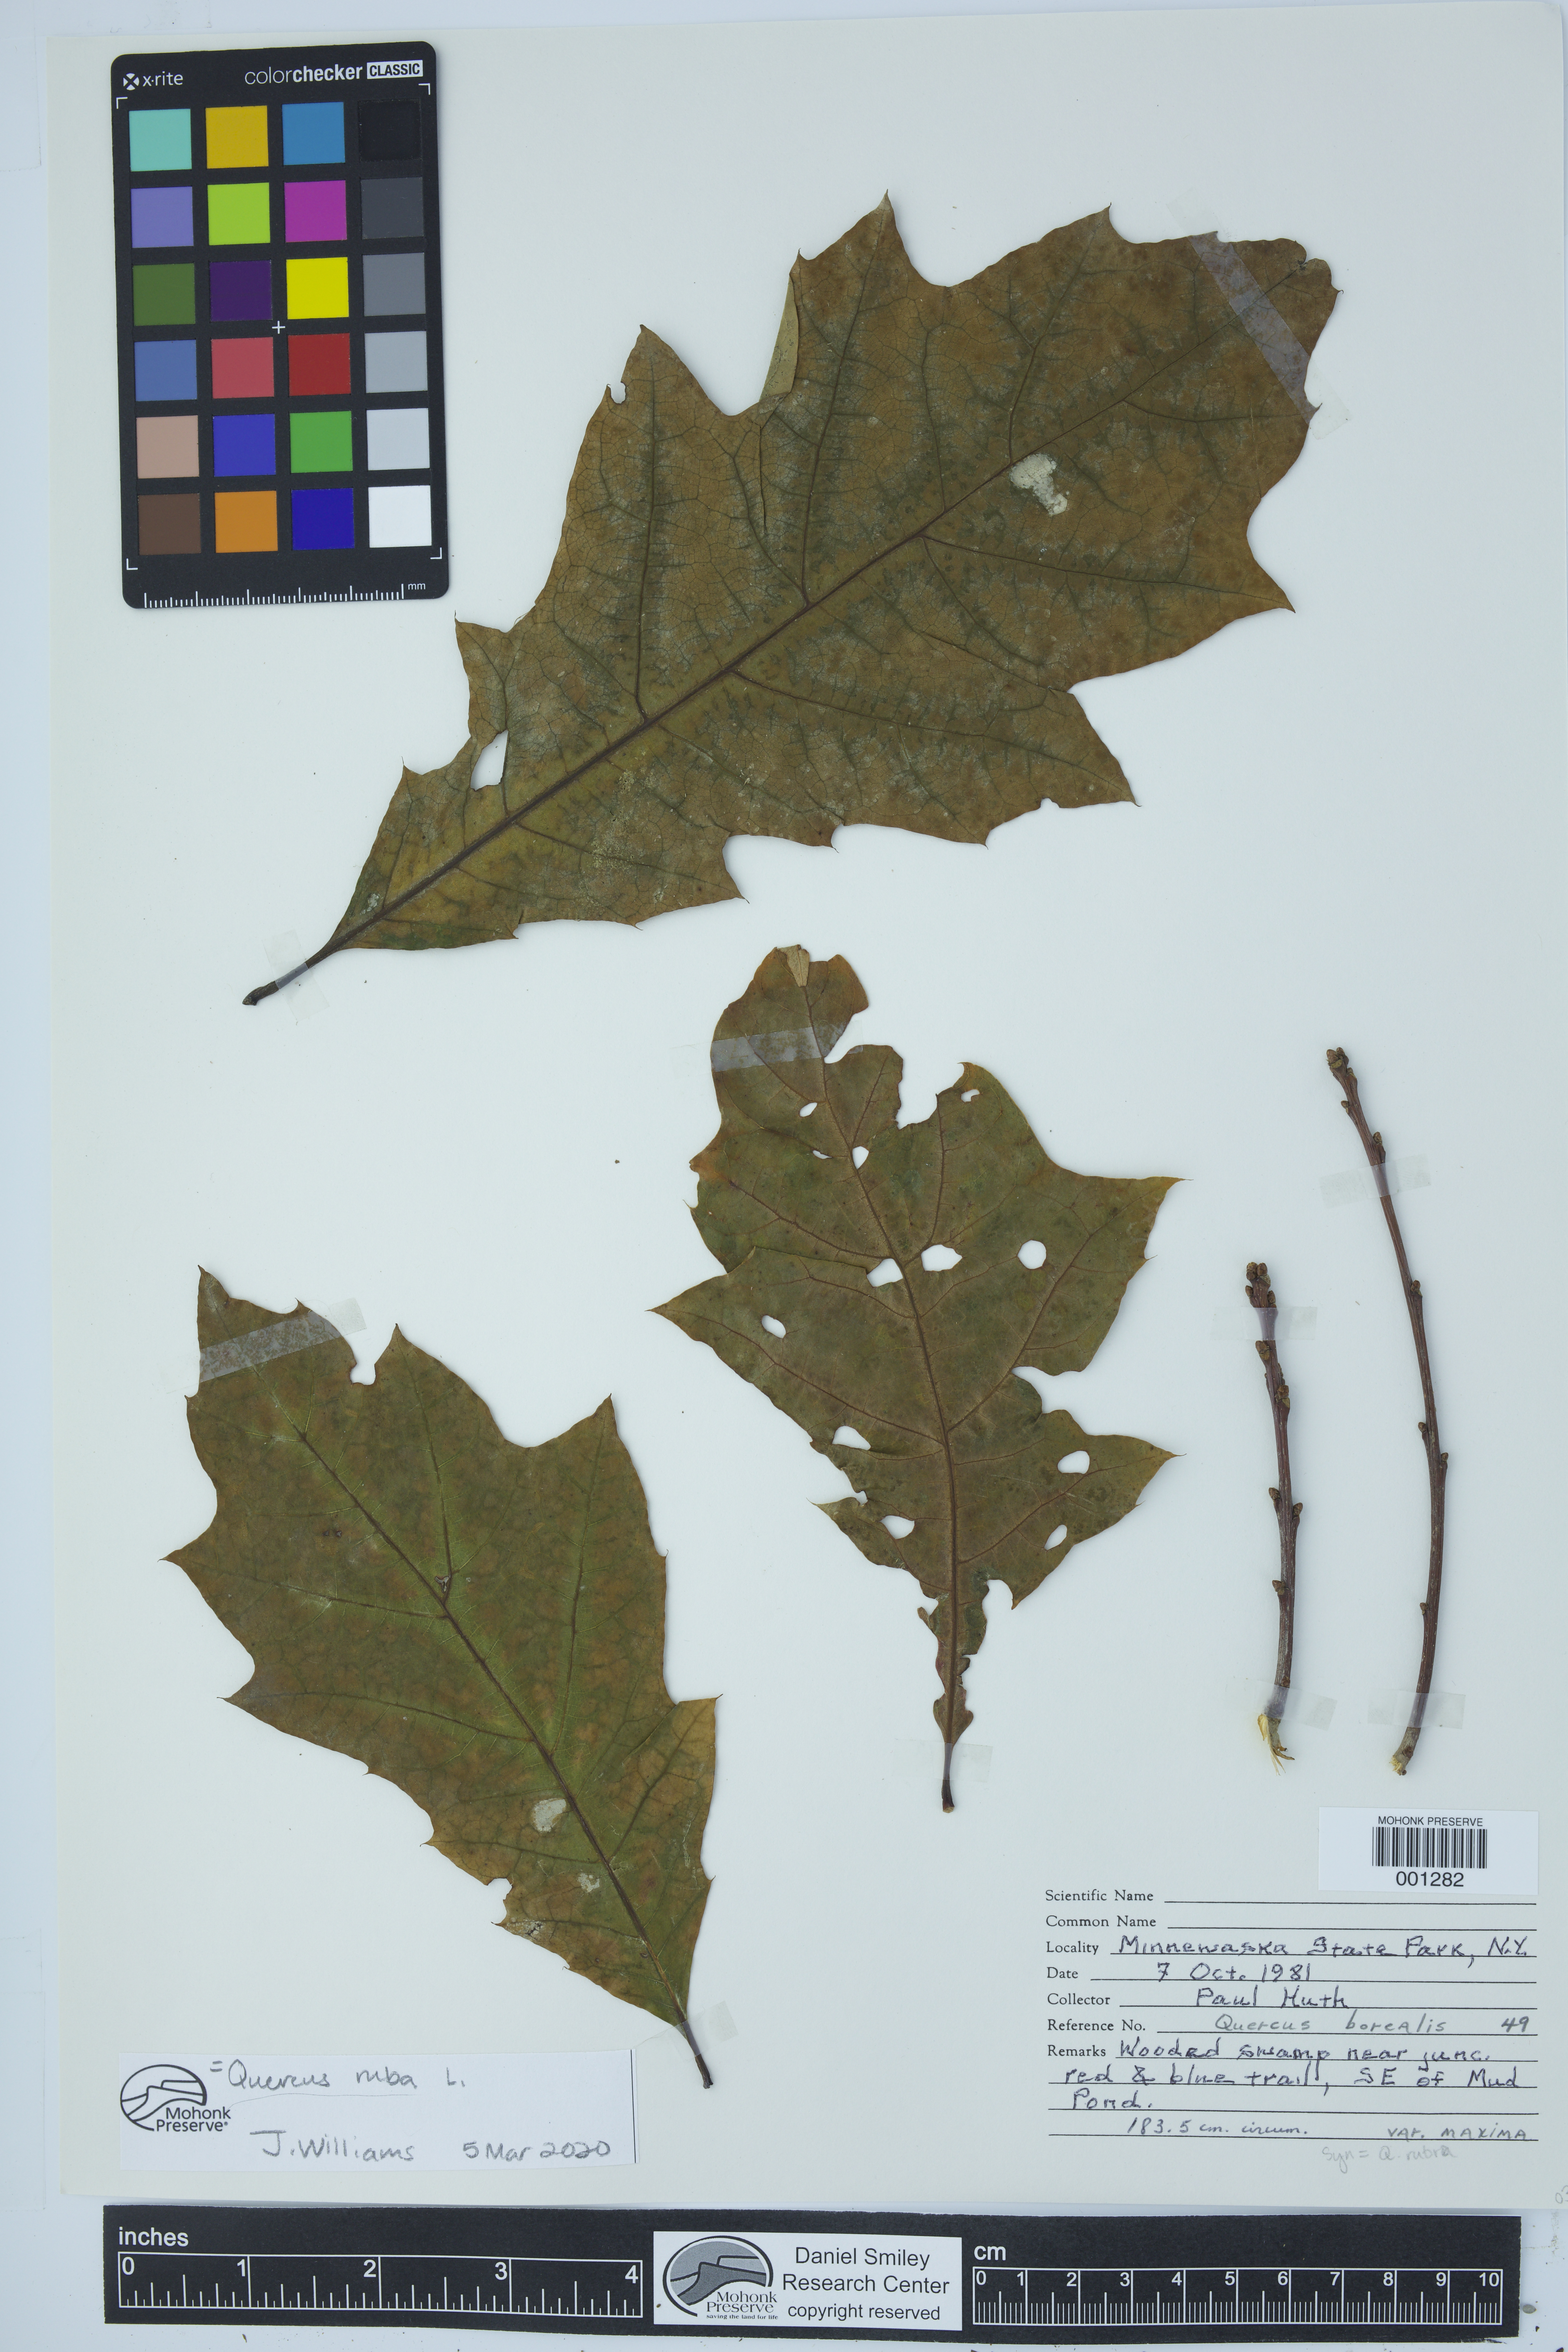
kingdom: Plantae
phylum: Tracheophyta
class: Magnoliopsida
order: Fagales
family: Fagaceae
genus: Quercus
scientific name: Quercus rubra
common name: Red oak
